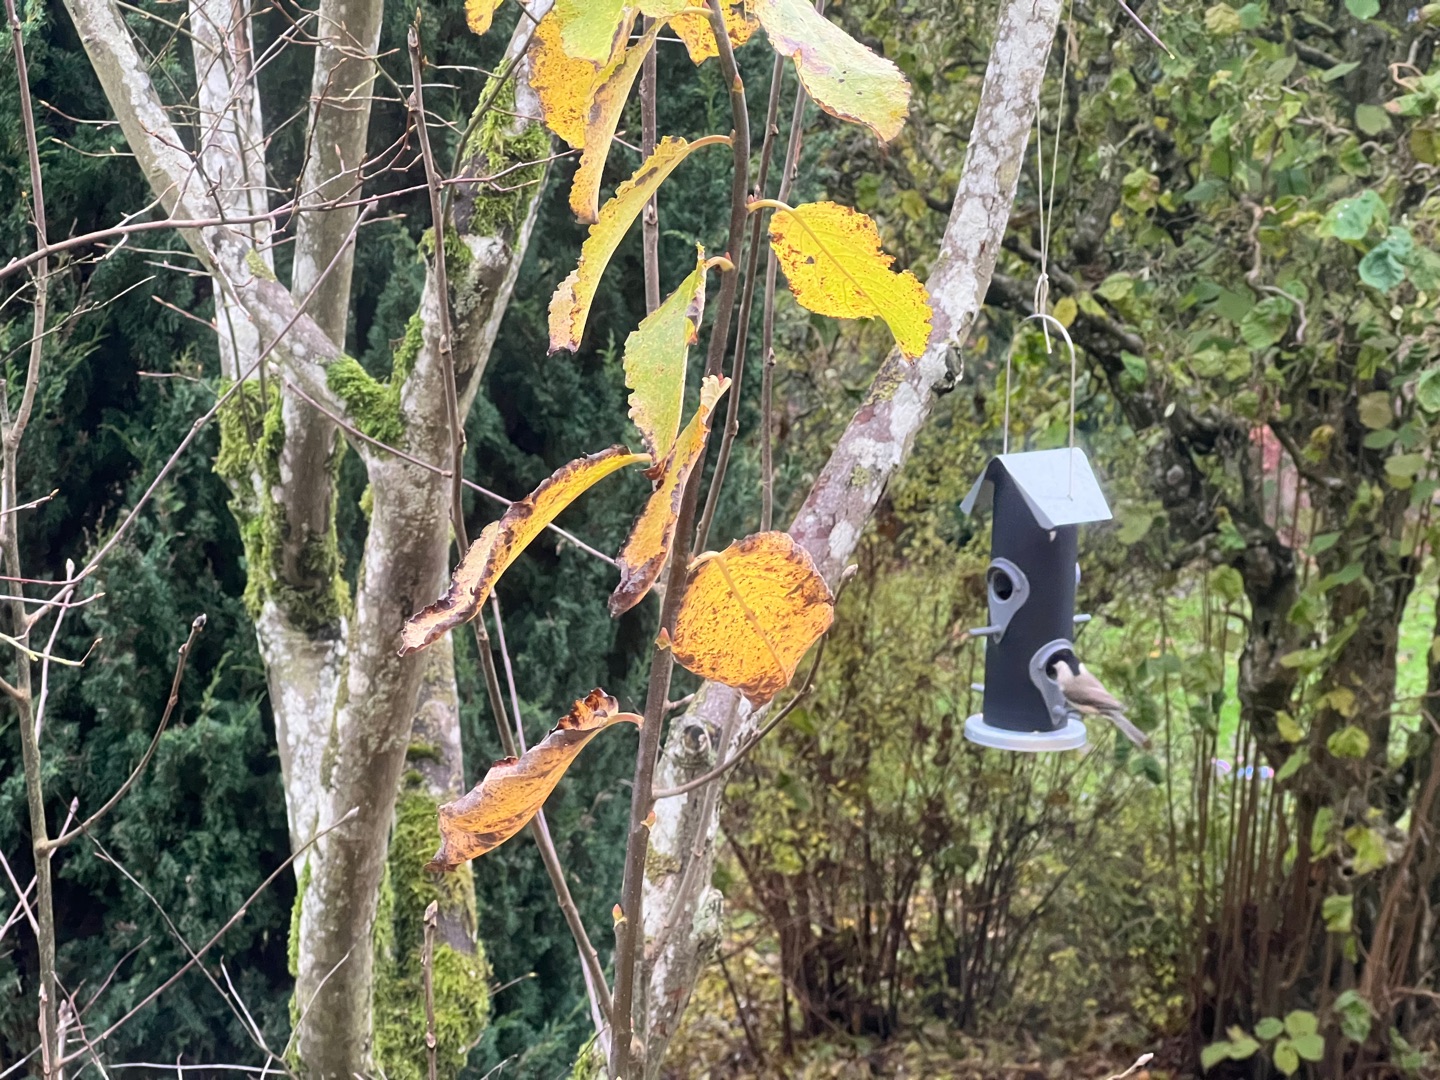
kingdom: Animalia
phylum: Chordata
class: Aves
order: Passeriformes
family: Paridae
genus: Poecile
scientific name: Poecile palustris
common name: Sumpmejse
